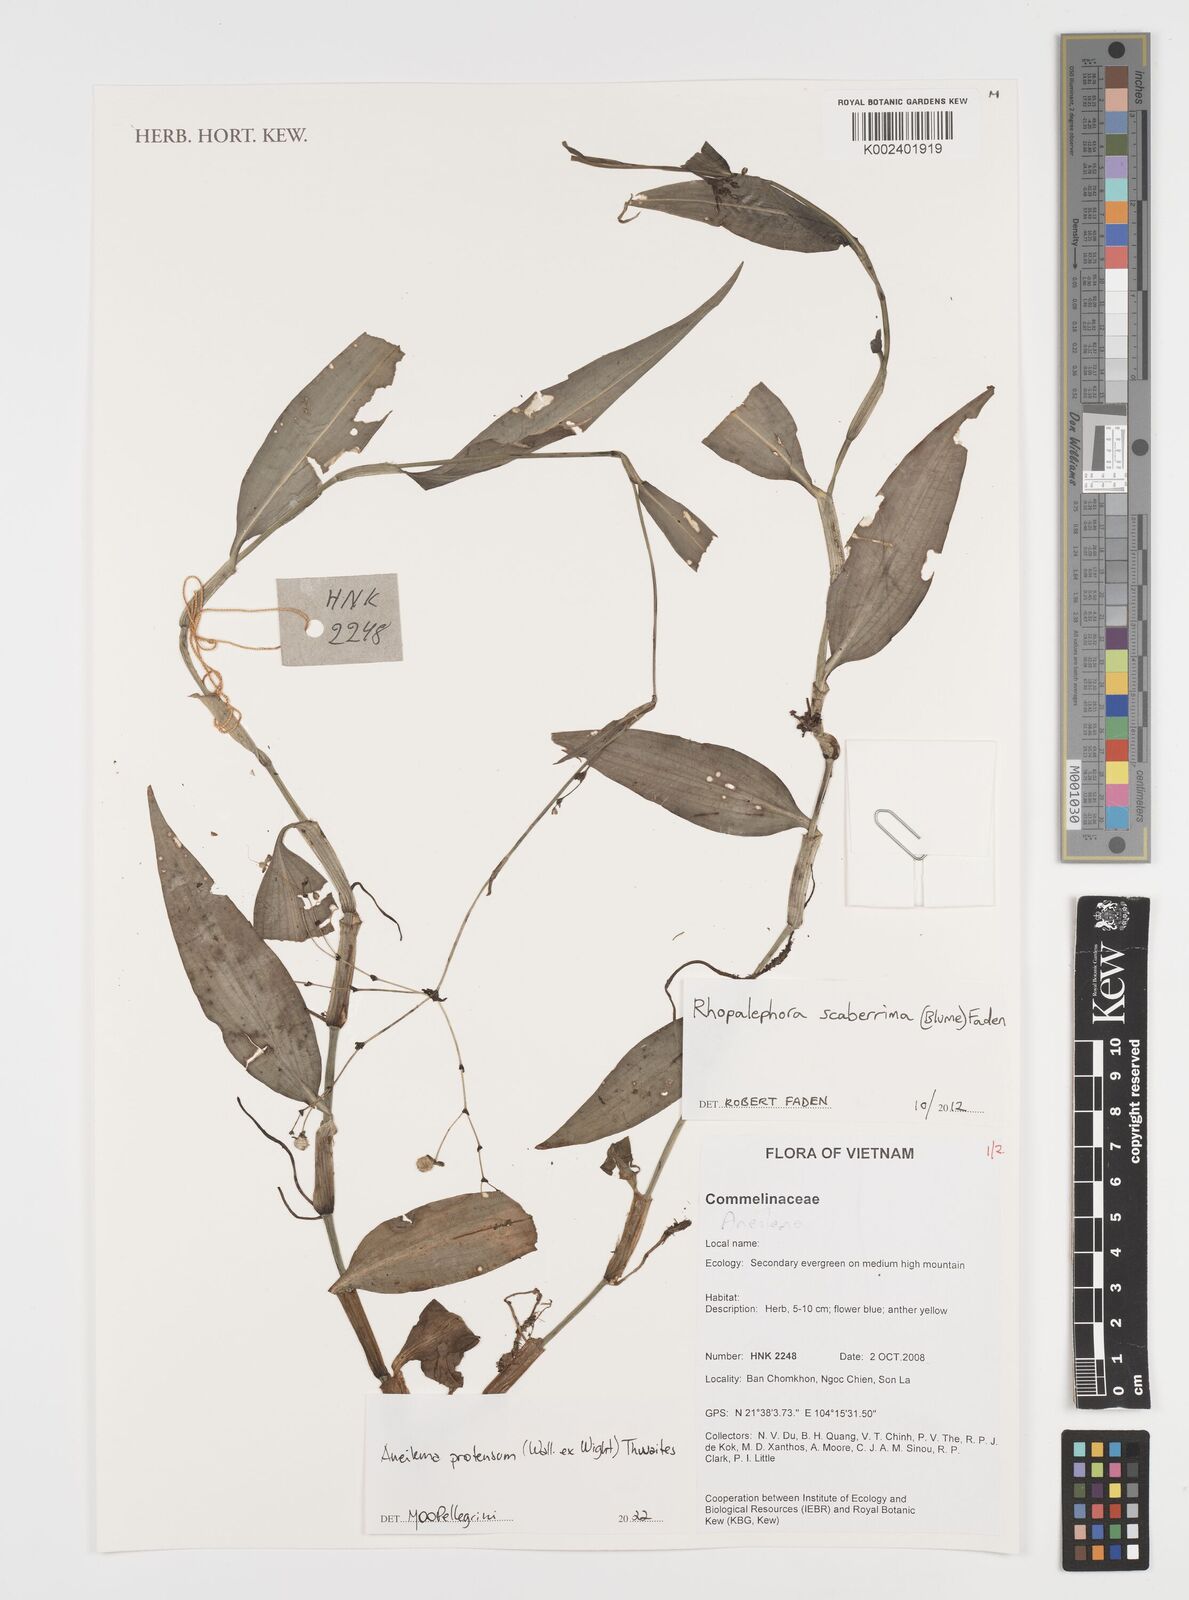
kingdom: Plantae
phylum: Tracheophyta
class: Liliopsida
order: Commelinales
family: Commelinaceae
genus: Rhopalephora
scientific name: Rhopalephora
